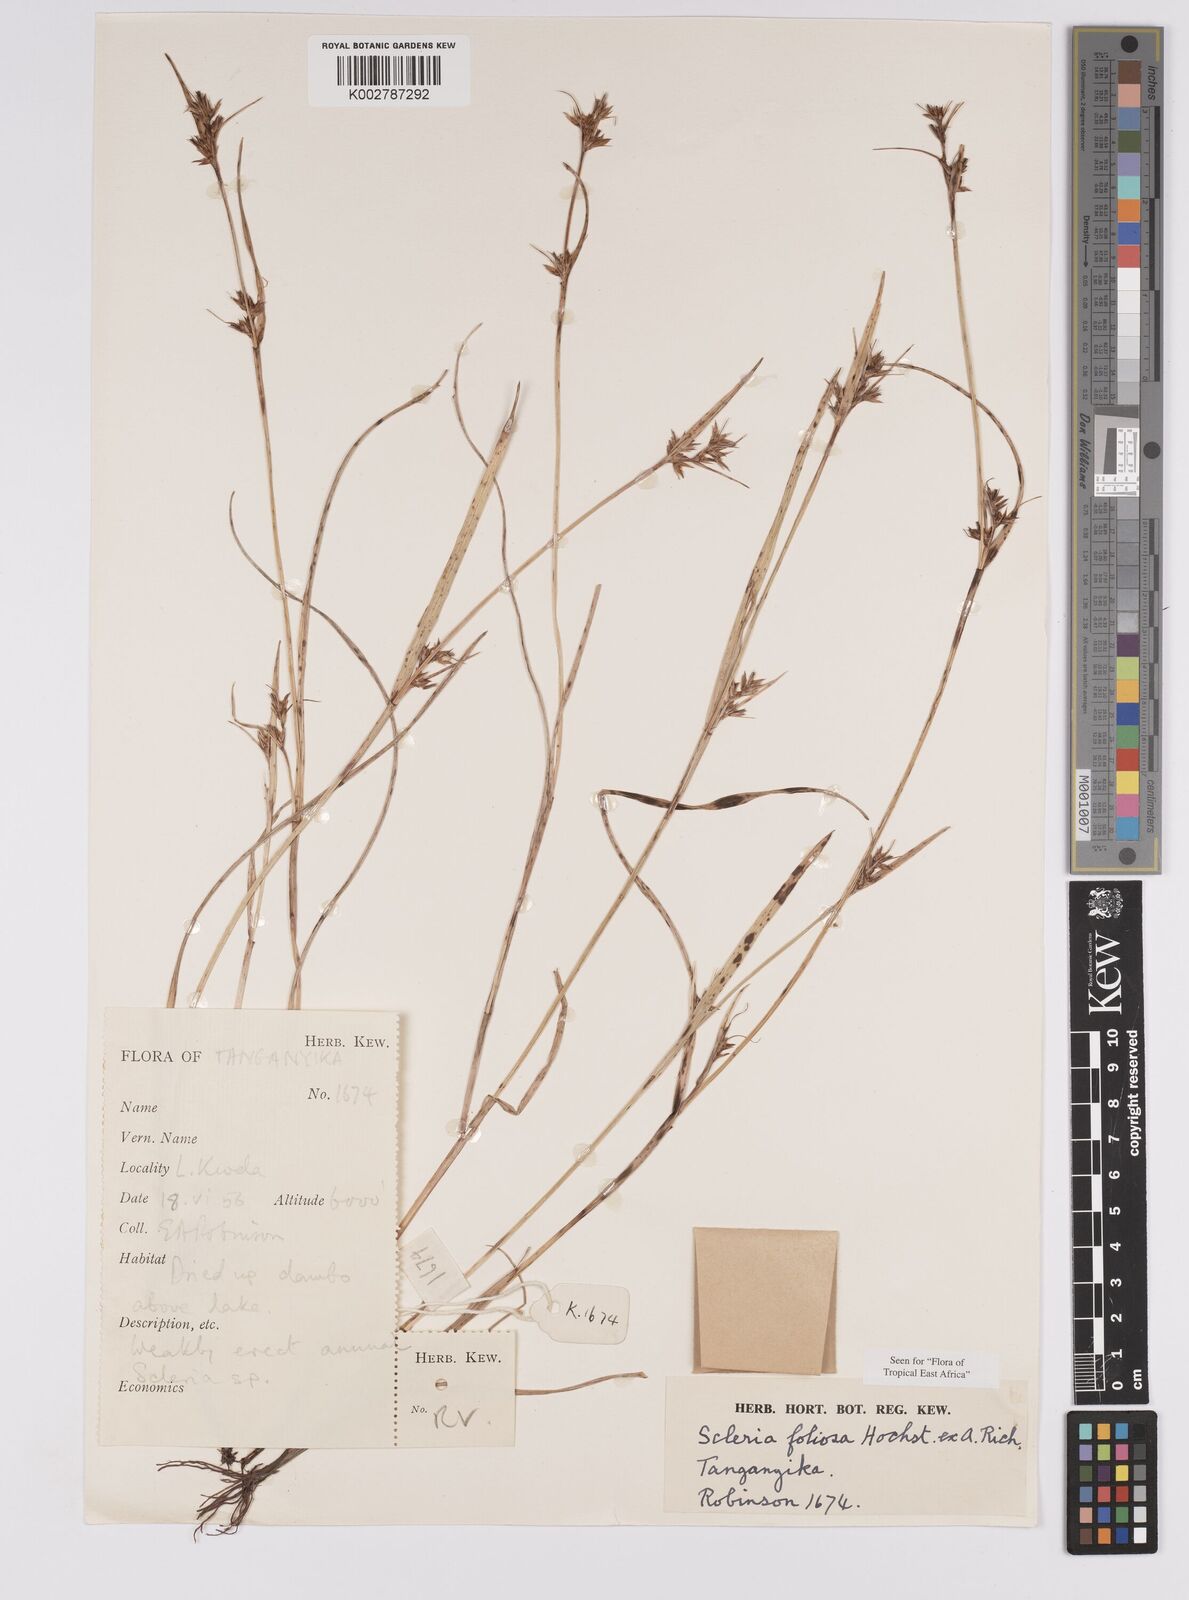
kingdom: Plantae
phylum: Tracheophyta
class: Liliopsida
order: Poales
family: Cyperaceae
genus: Scleria
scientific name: Scleria foliosa
